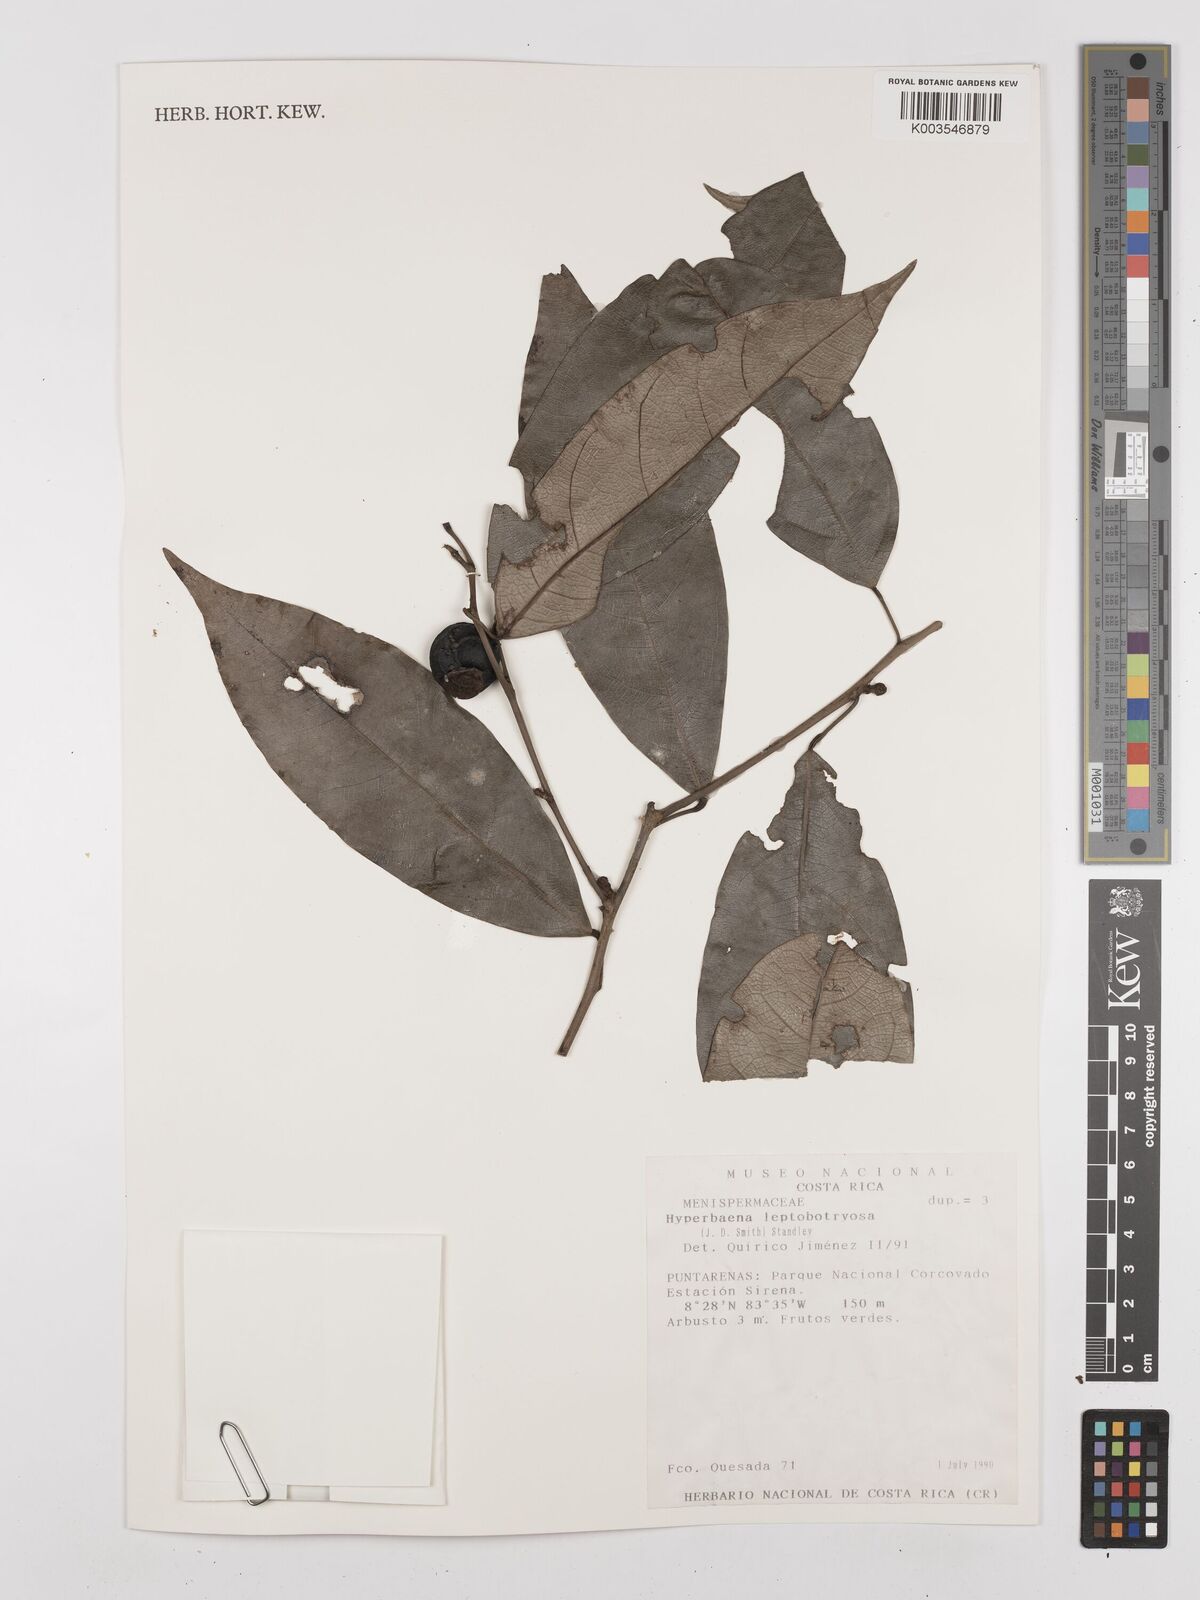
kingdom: Plantae
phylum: Tracheophyta
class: Magnoliopsida
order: Ranunculales
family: Menispermaceae
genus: Hyperbaena
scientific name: Hyperbaena leptobotryosa
